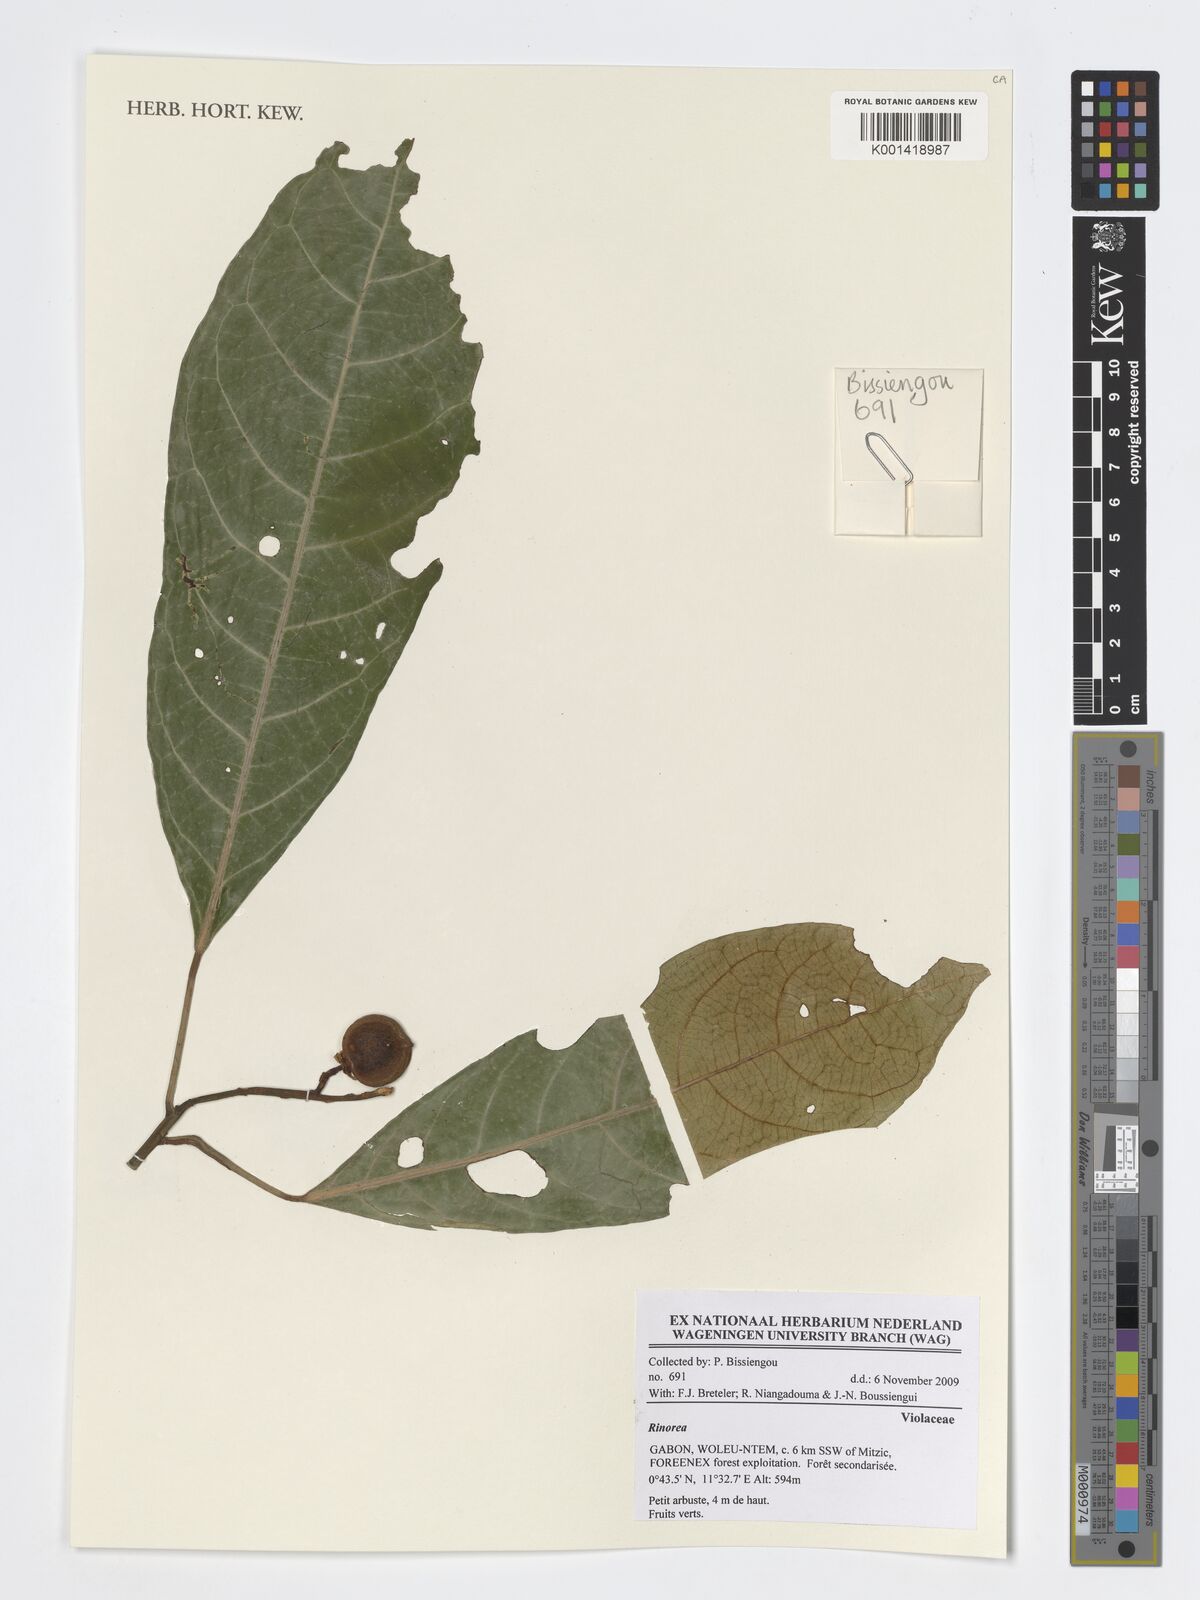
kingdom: Plantae
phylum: Tracheophyta
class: Magnoliopsida
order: Malpighiales
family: Violaceae
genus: Rinorea
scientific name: Rinorea
